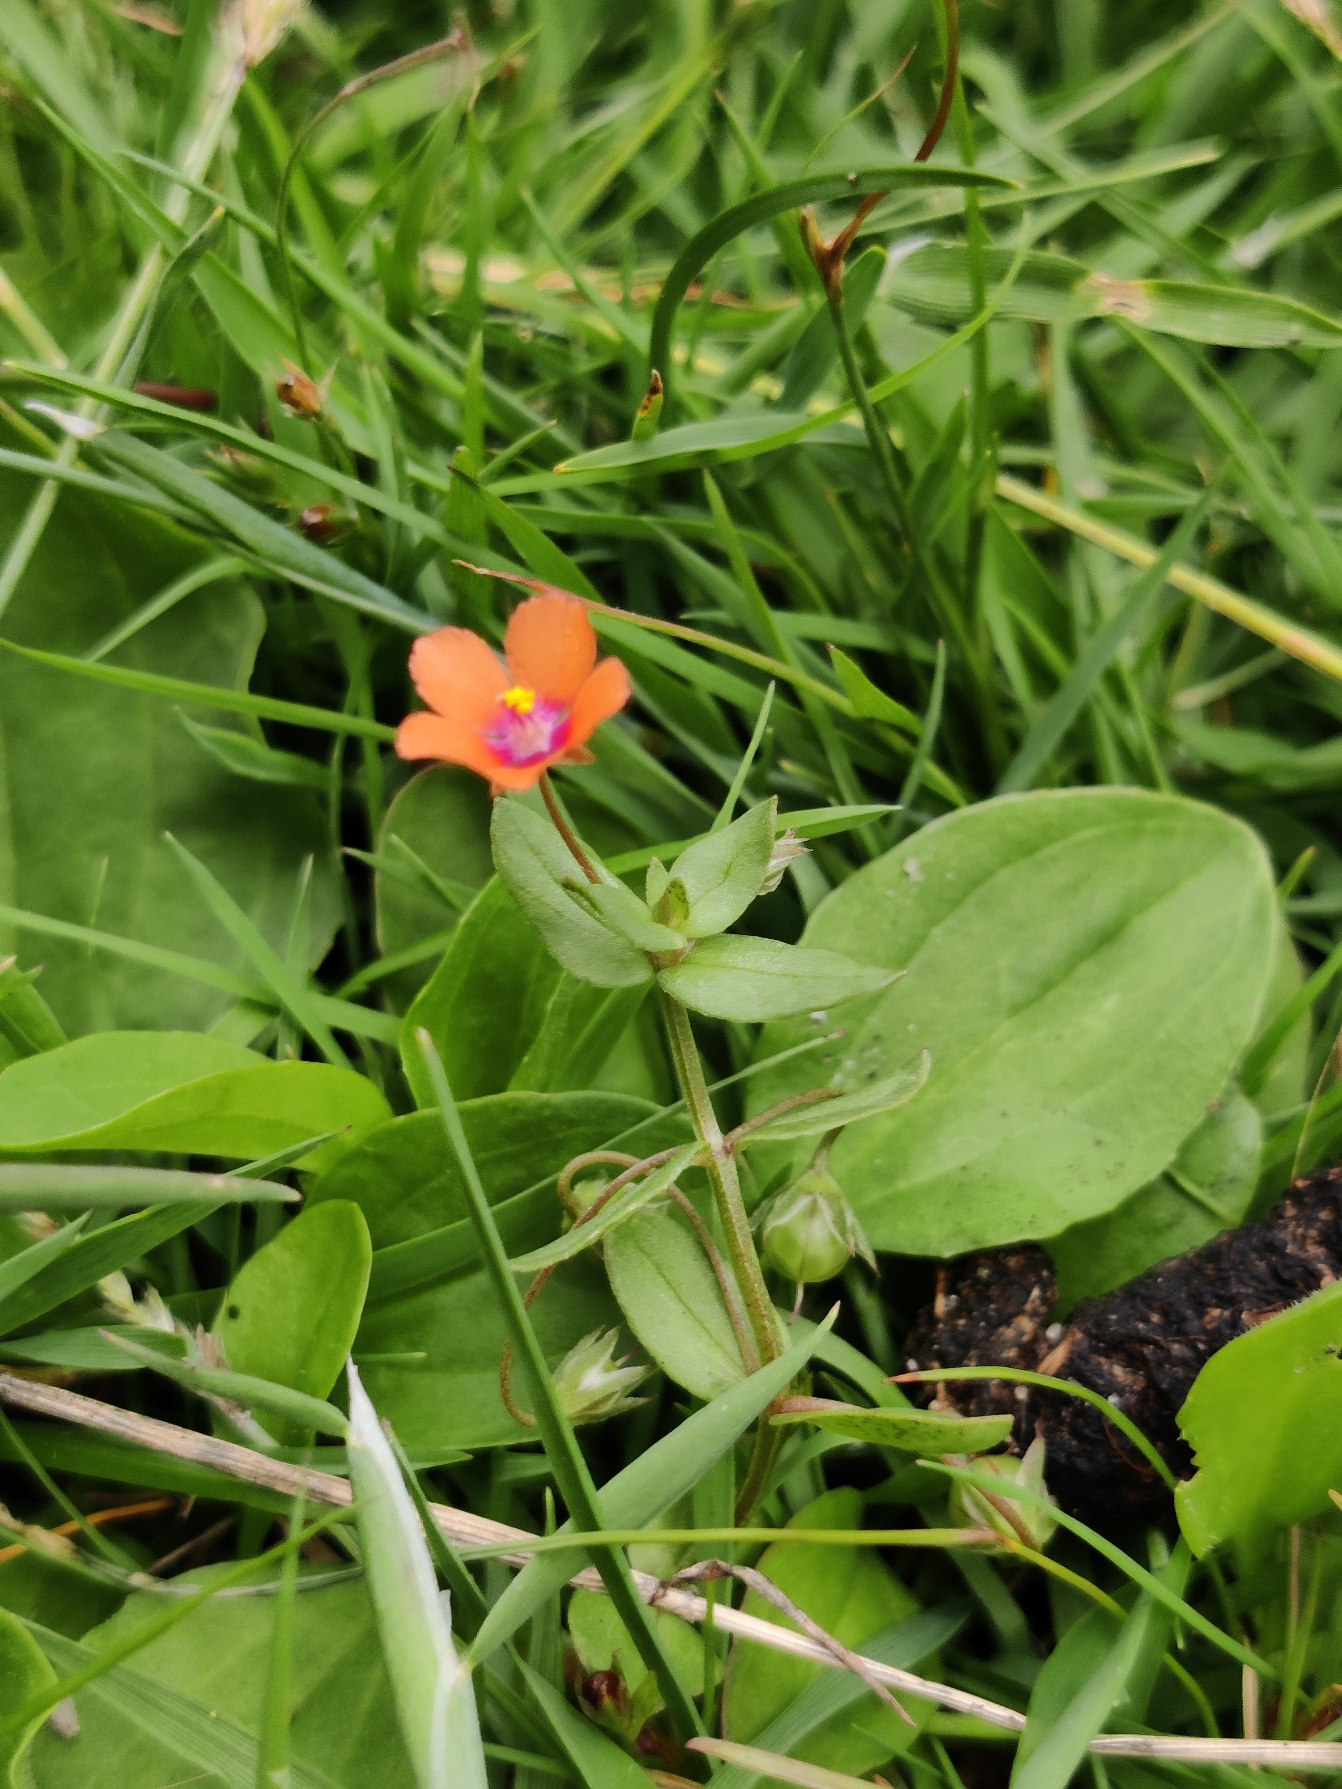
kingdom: Plantae
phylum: Tracheophyta
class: Magnoliopsida
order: Ericales
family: Primulaceae
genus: Lysimachia
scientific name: Lysimachia arvensis
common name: Rød arve
